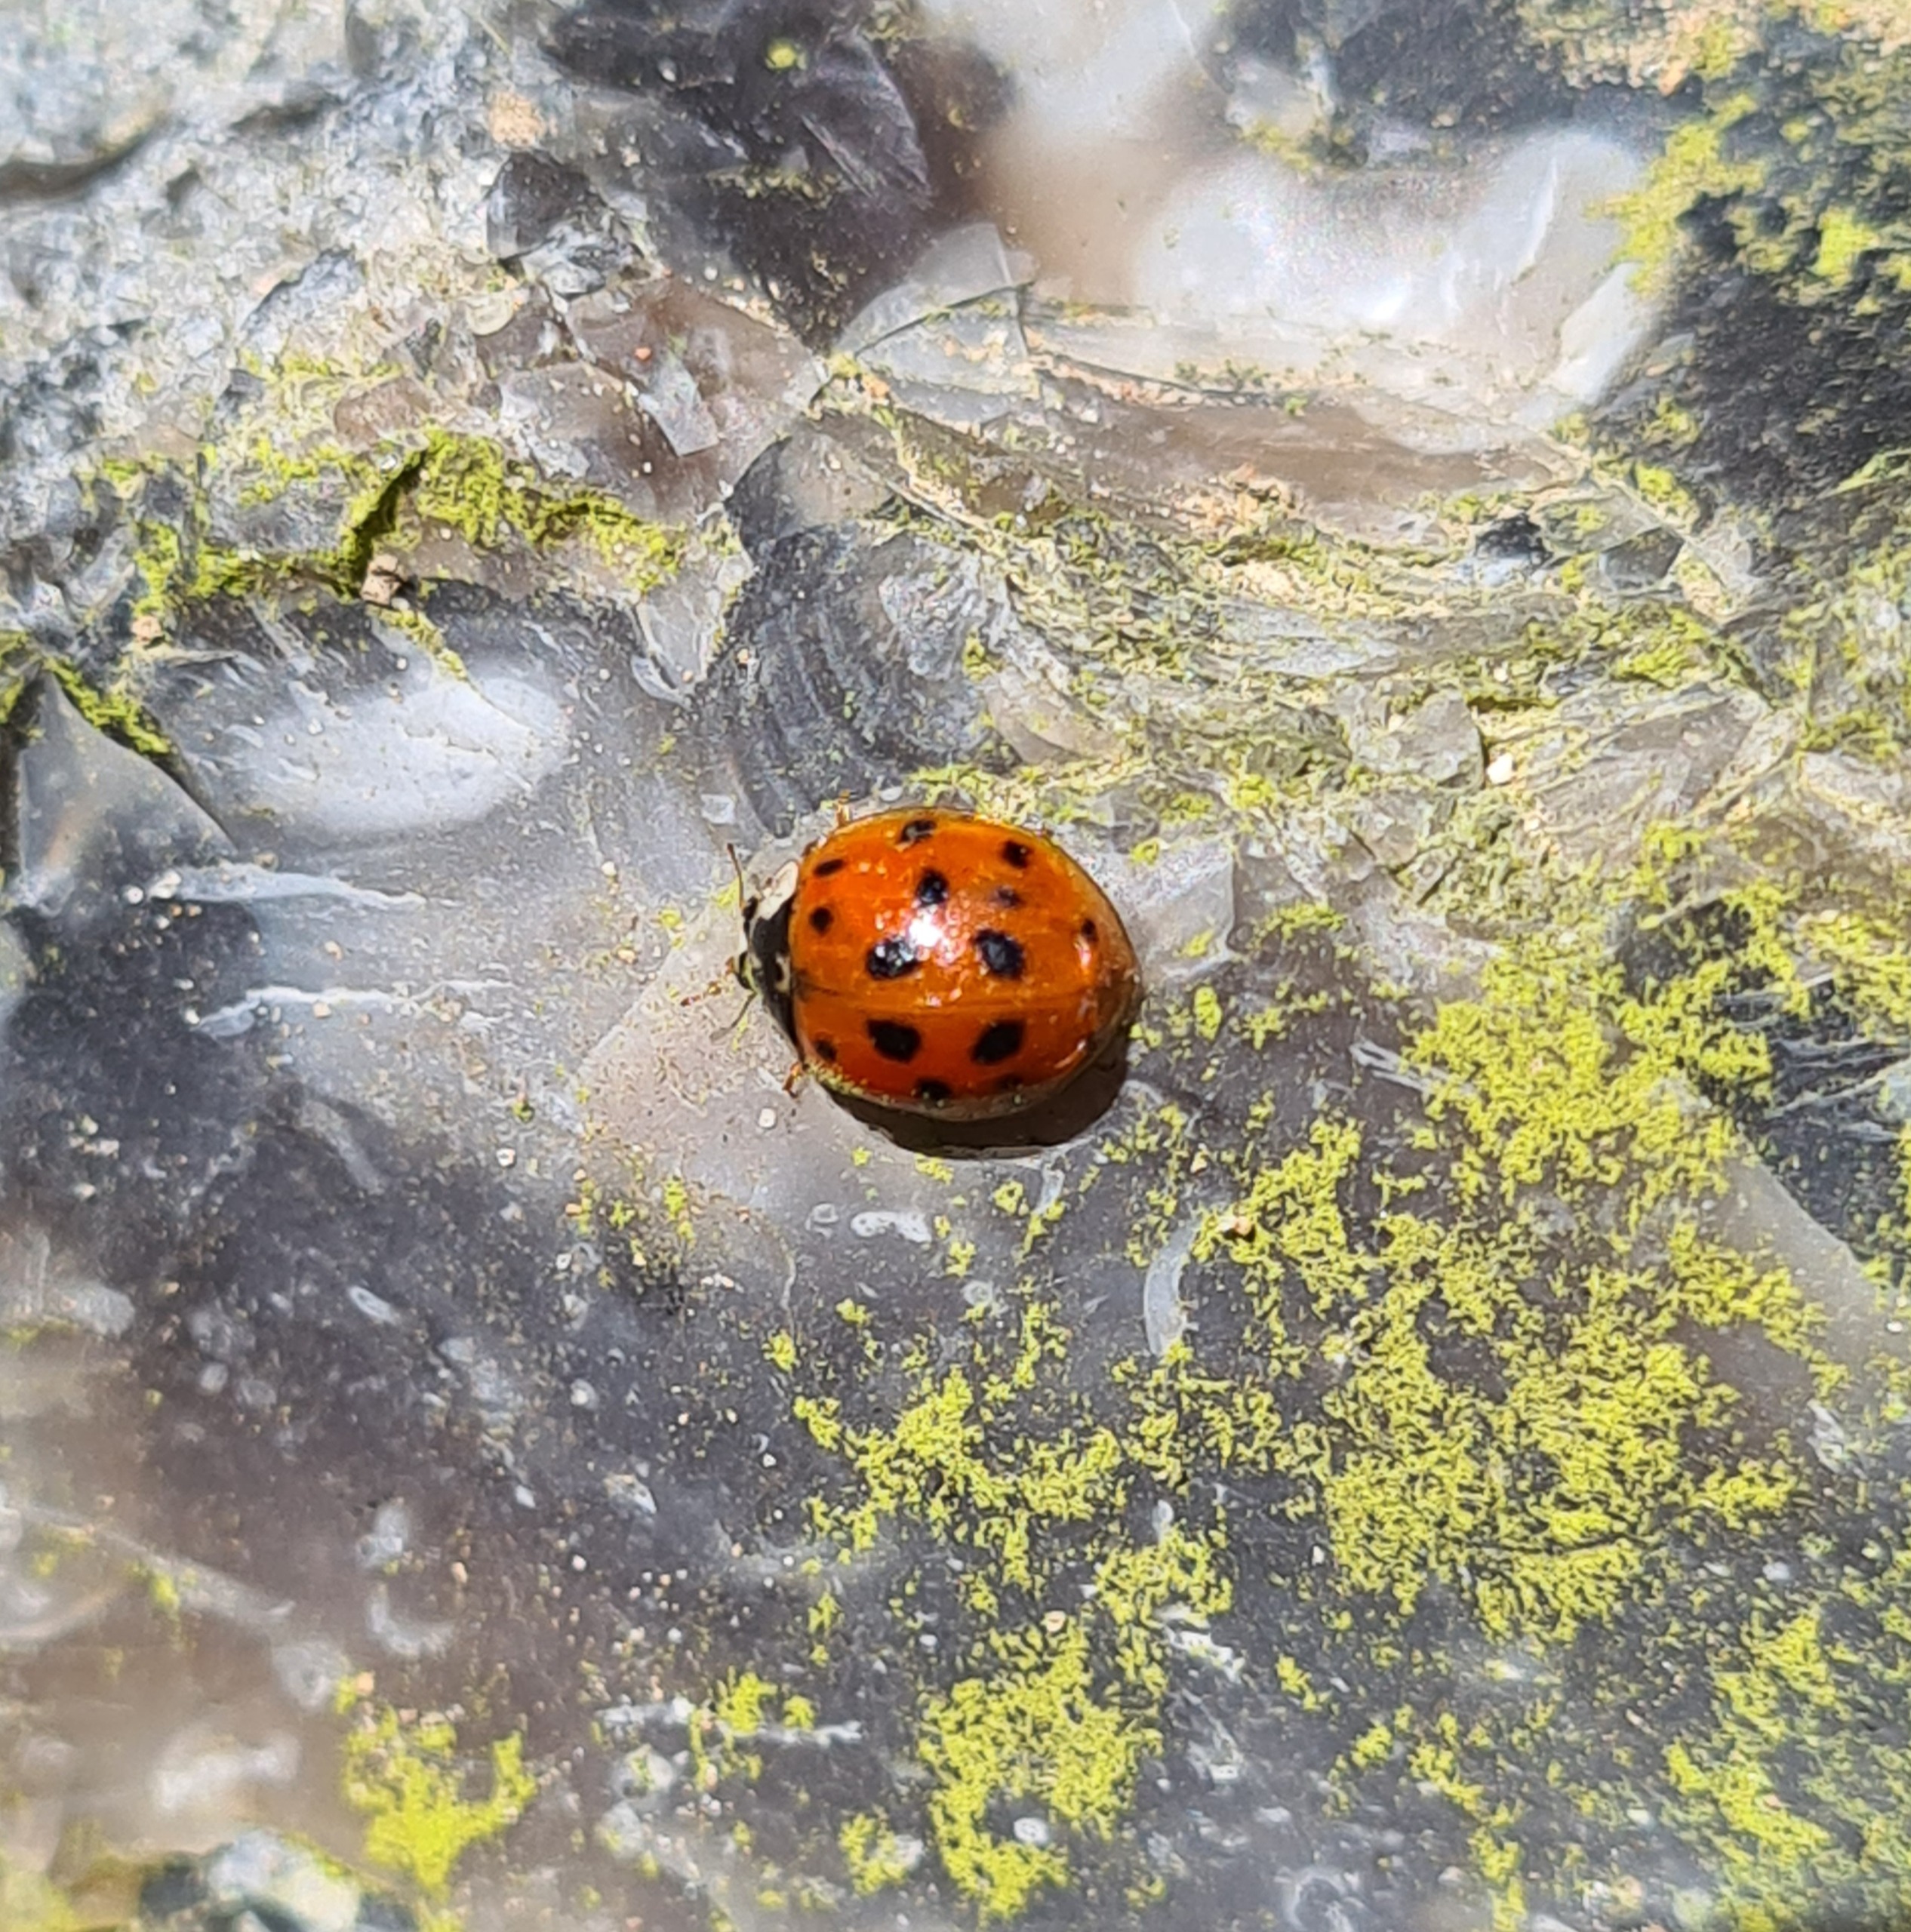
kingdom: Animalia
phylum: Arthropoda
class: Insecta
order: Coleoptera
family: Coccinellidae
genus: Harmonia
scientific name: Harmonia axyridis
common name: Harlekinmariehøne
